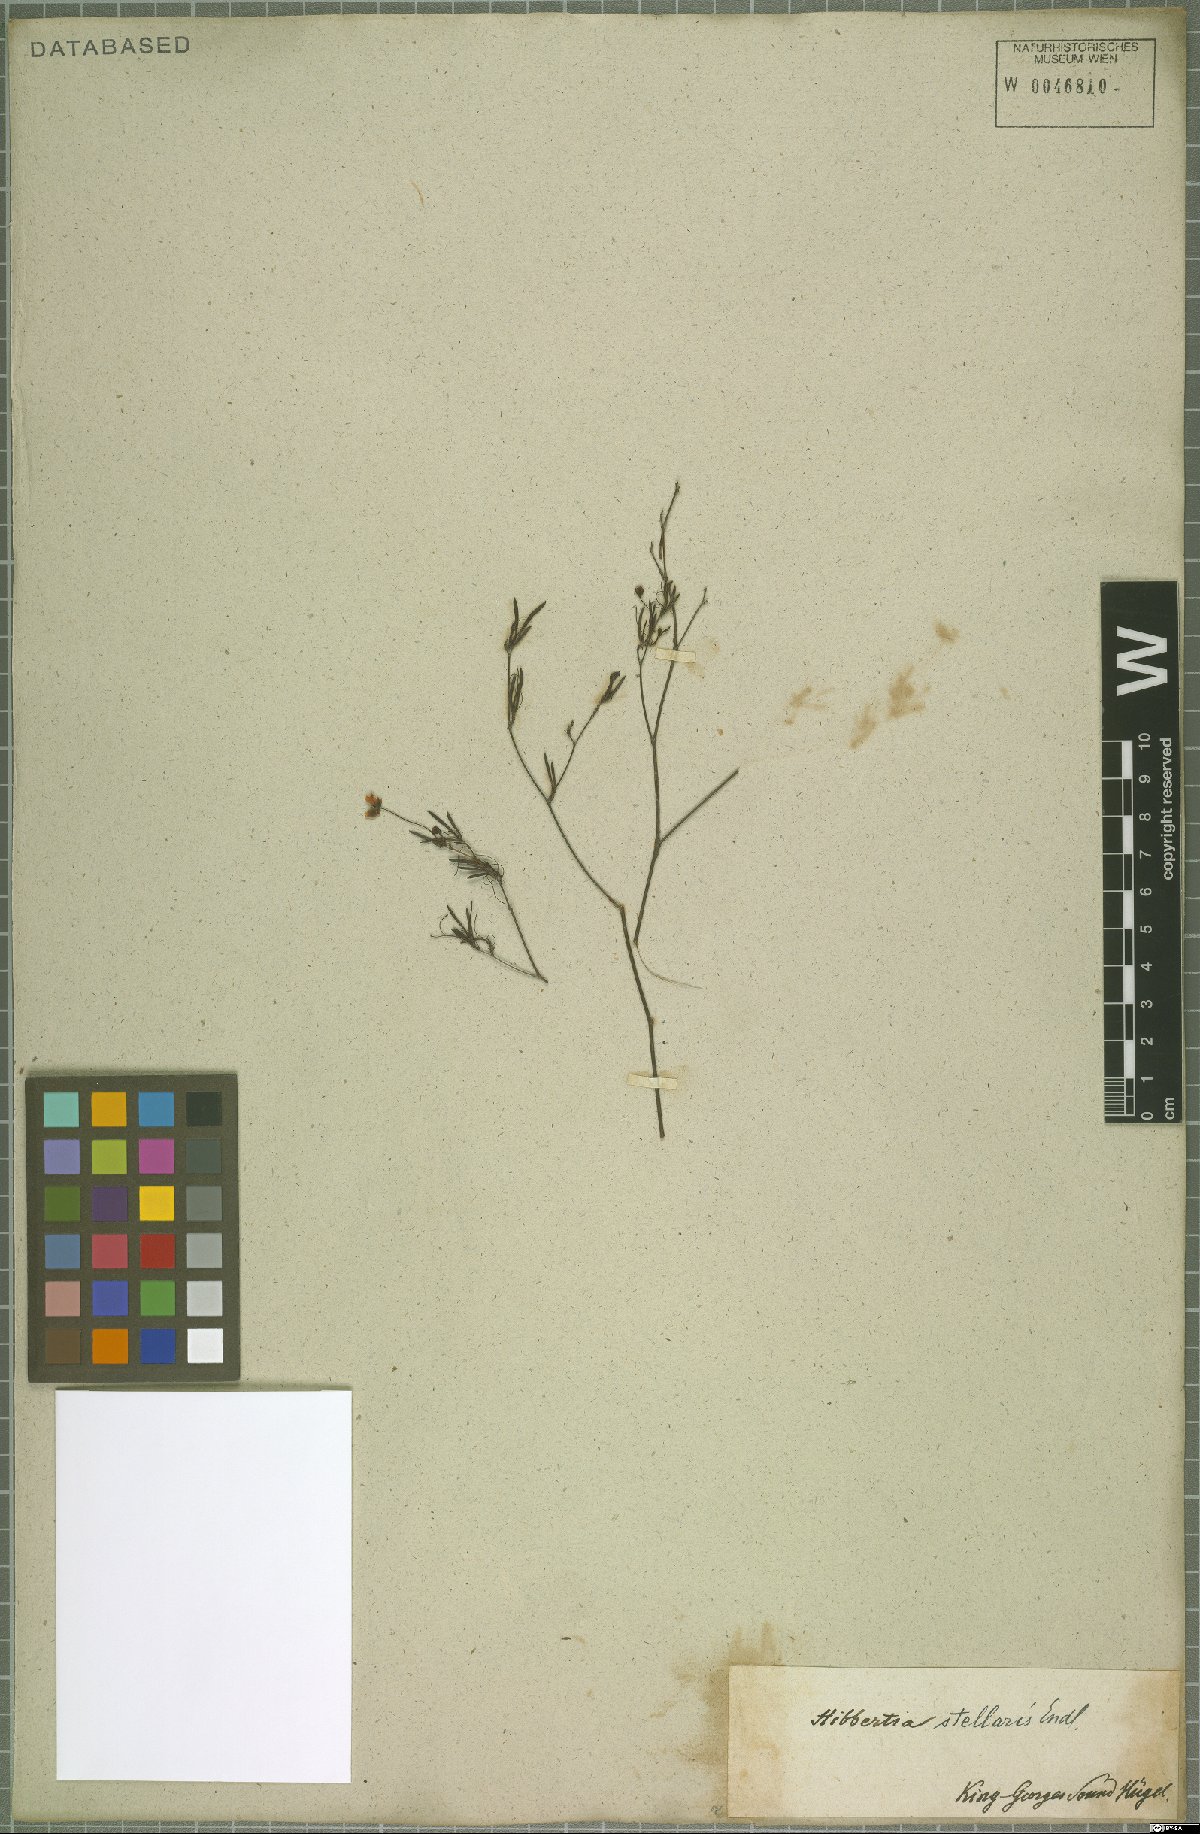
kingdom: Plantae
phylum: Tracheophyta
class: Magnoliopsida
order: Dilleniales
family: Dilleniaceae
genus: Hibbertia
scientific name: Hibbertia stellaris
